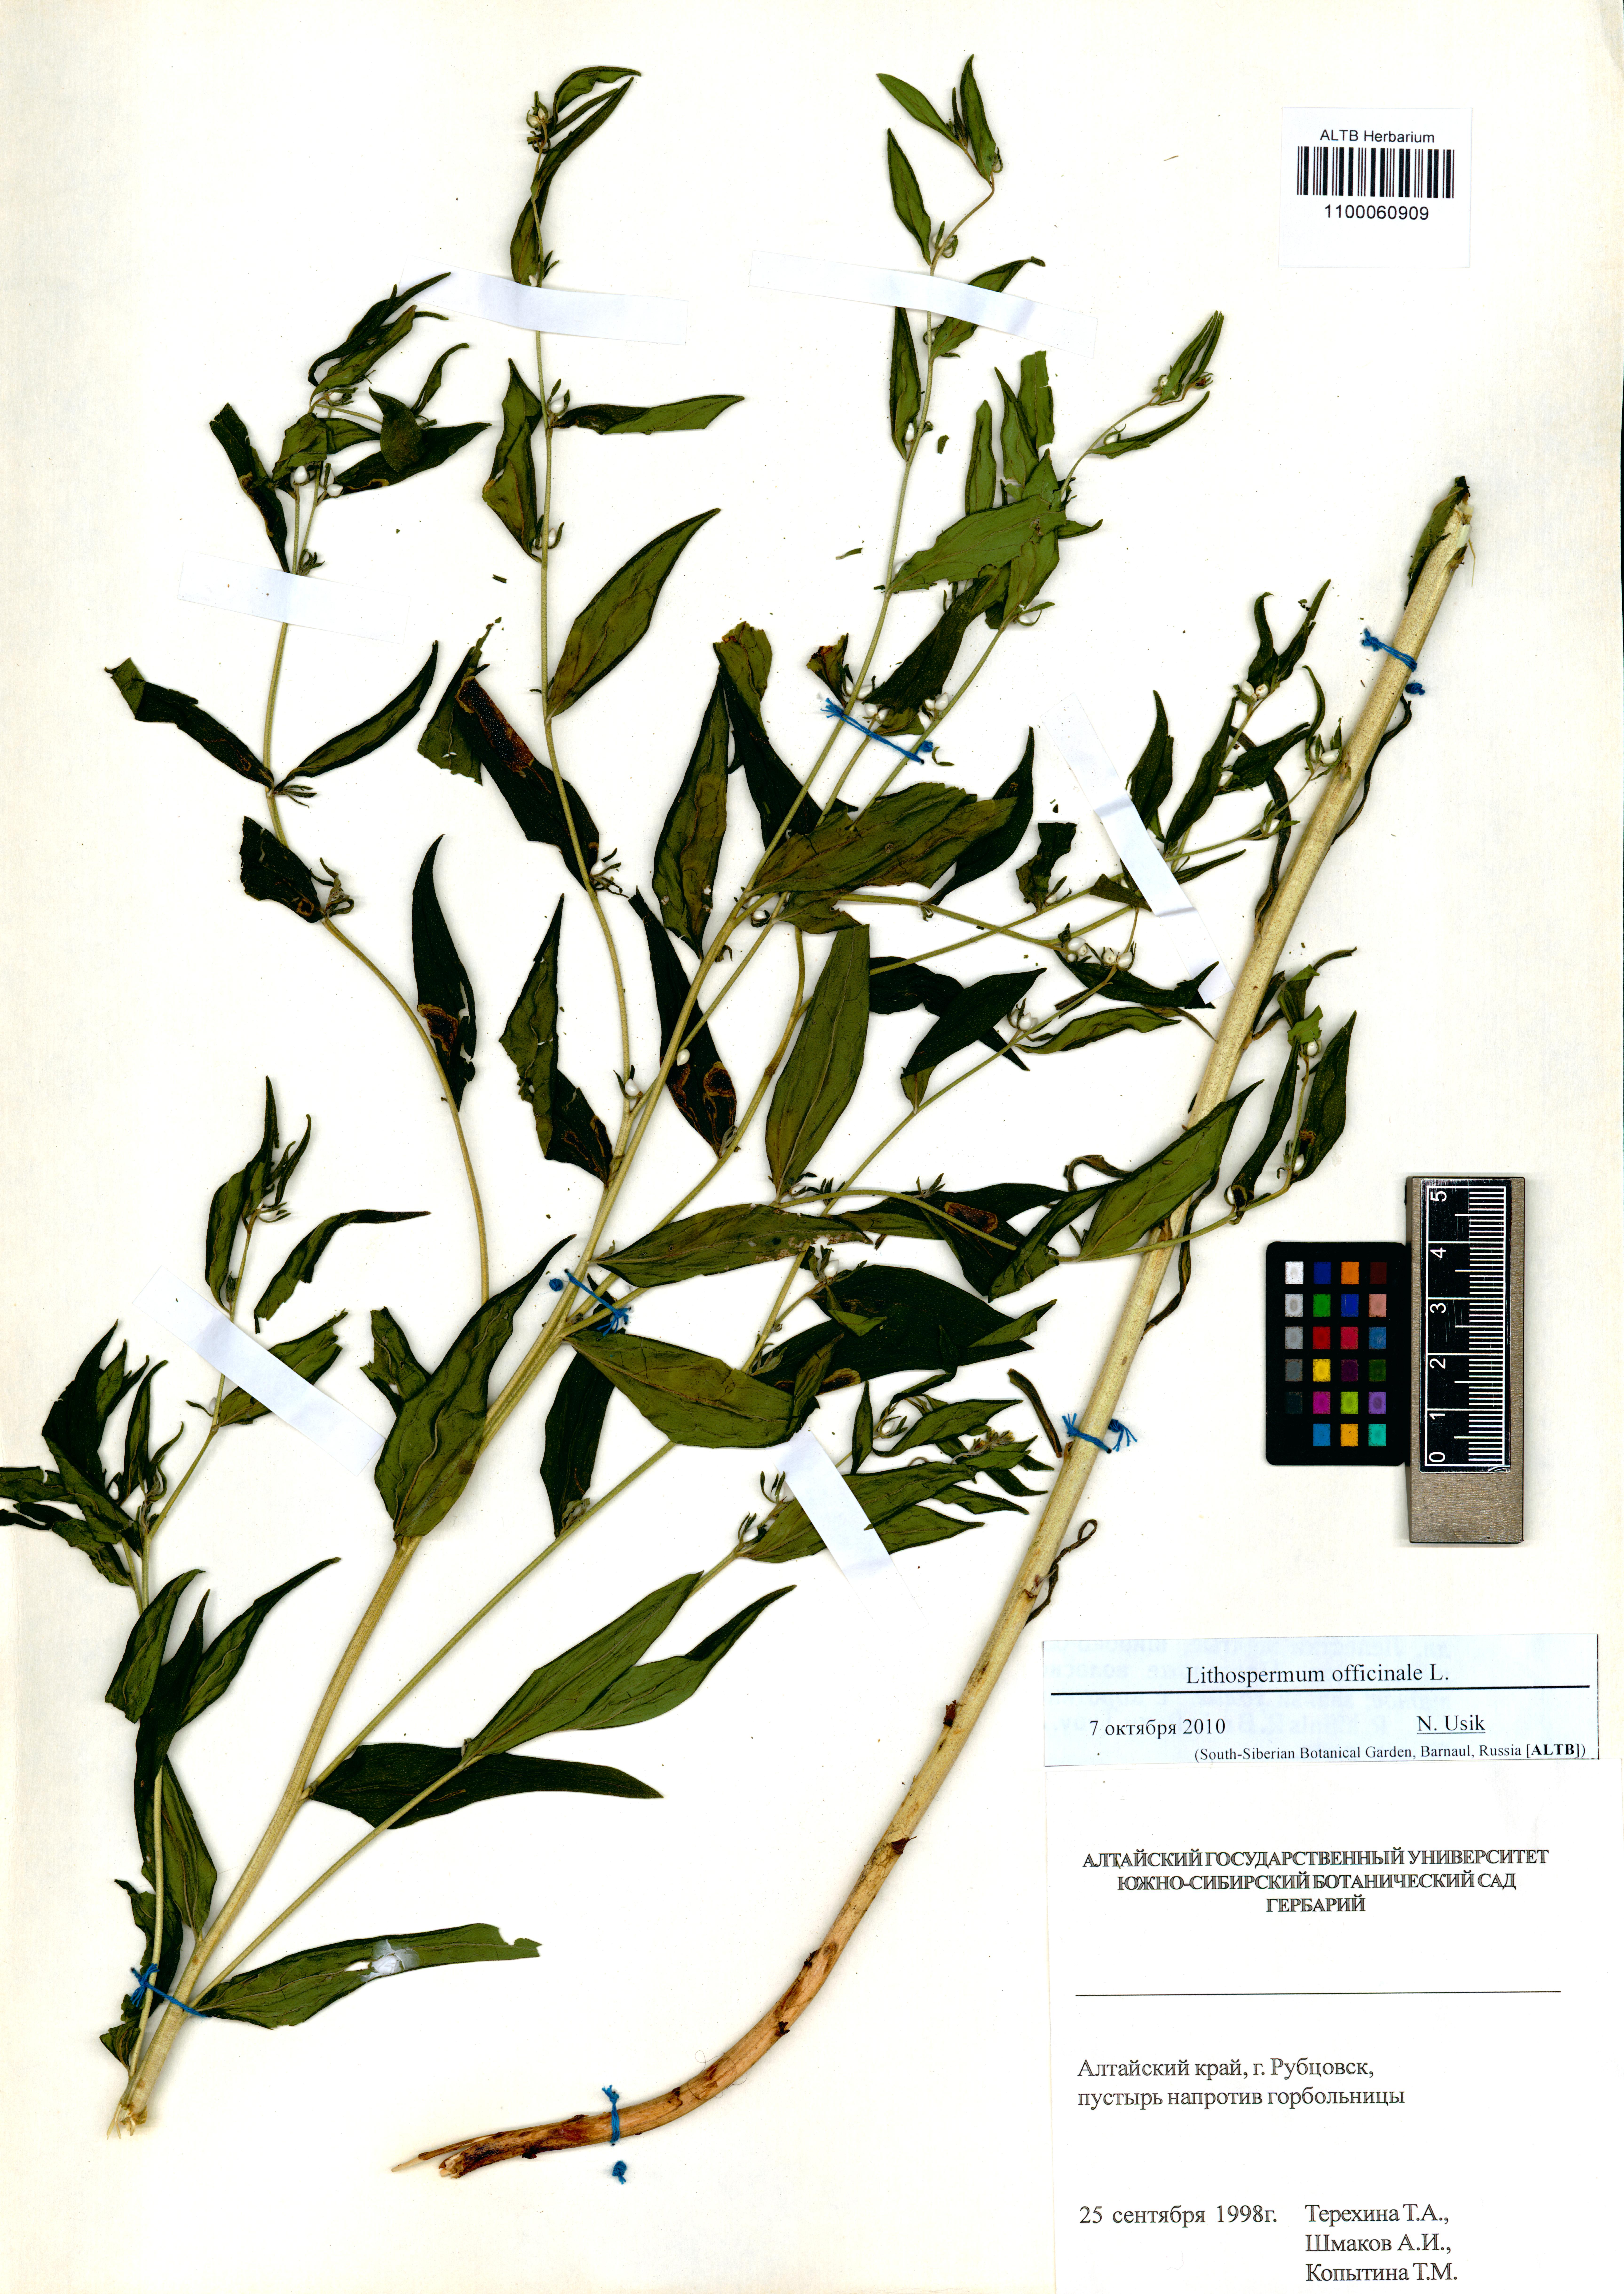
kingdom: Plantae
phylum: Tracheophyta
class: Magnoliopsida
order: Boraginales
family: Boraginaceae
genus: Lithospermum
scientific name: Lithospermum officinale
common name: Common gromwell
